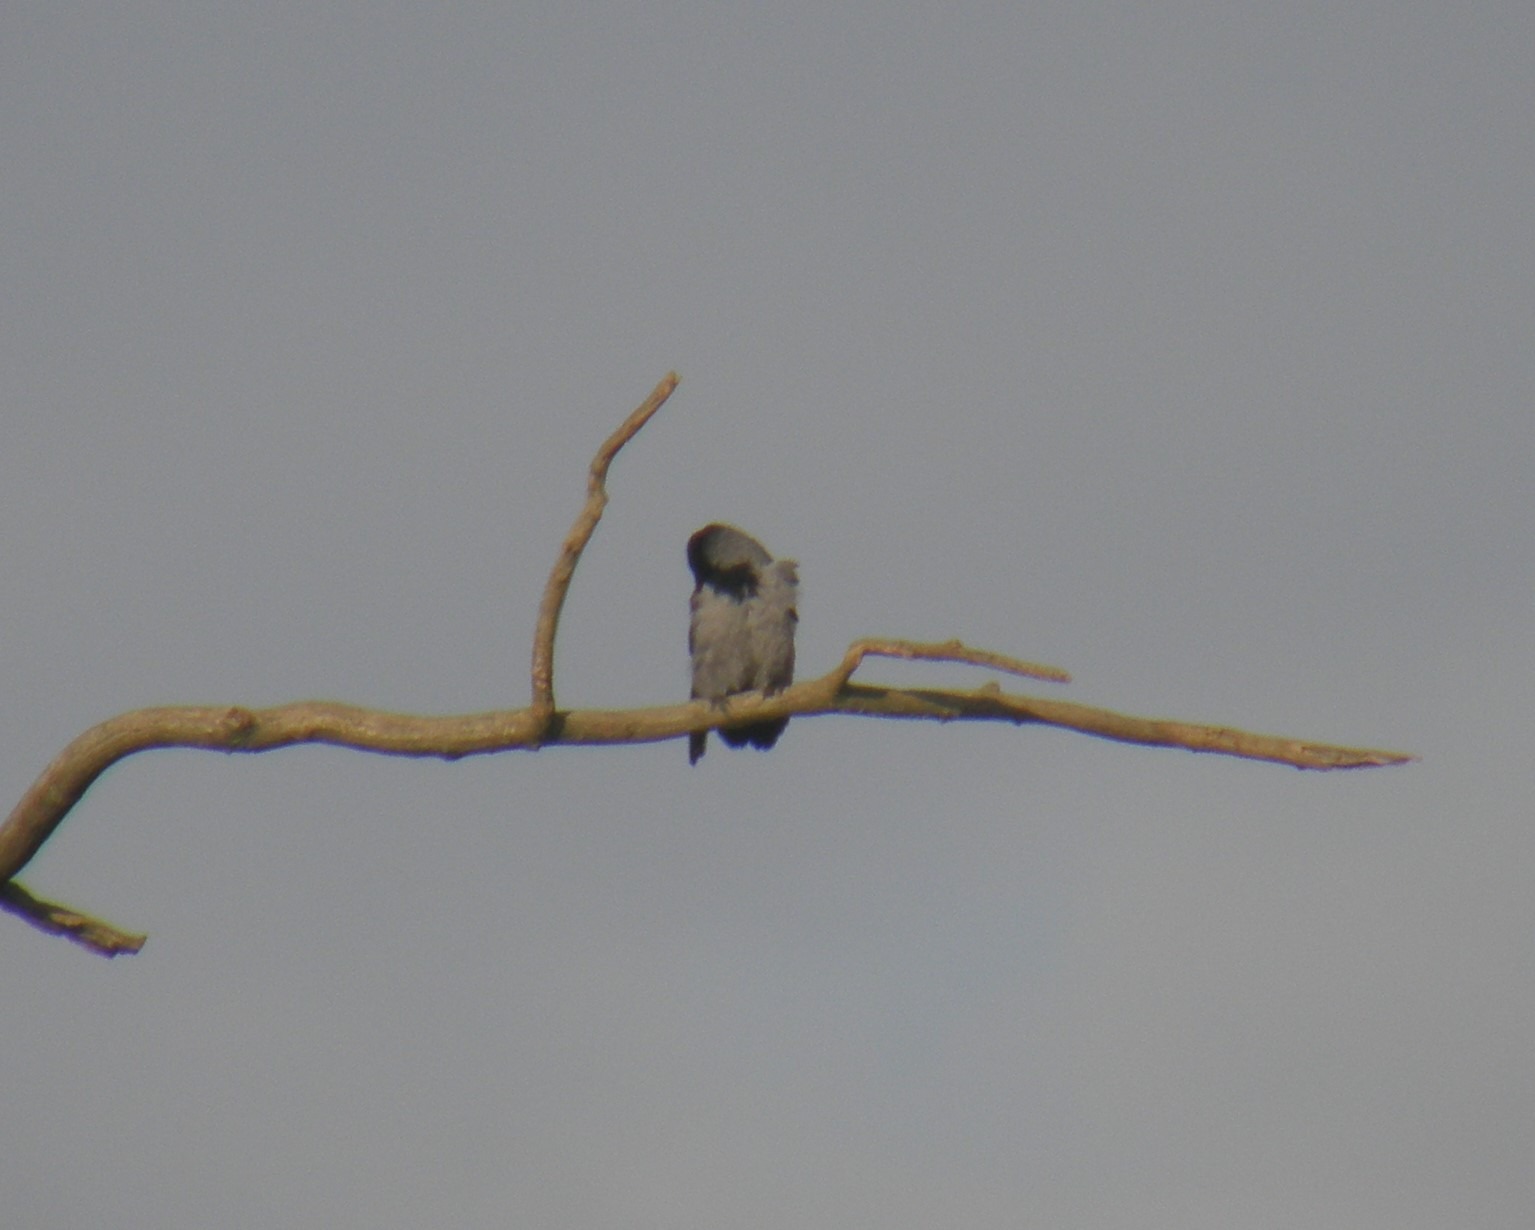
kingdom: Animalia
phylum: Chordata
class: Aves
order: Passeriformes
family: Corvidae
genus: Corvus
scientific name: Corvus cornix
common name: Gråkrage
